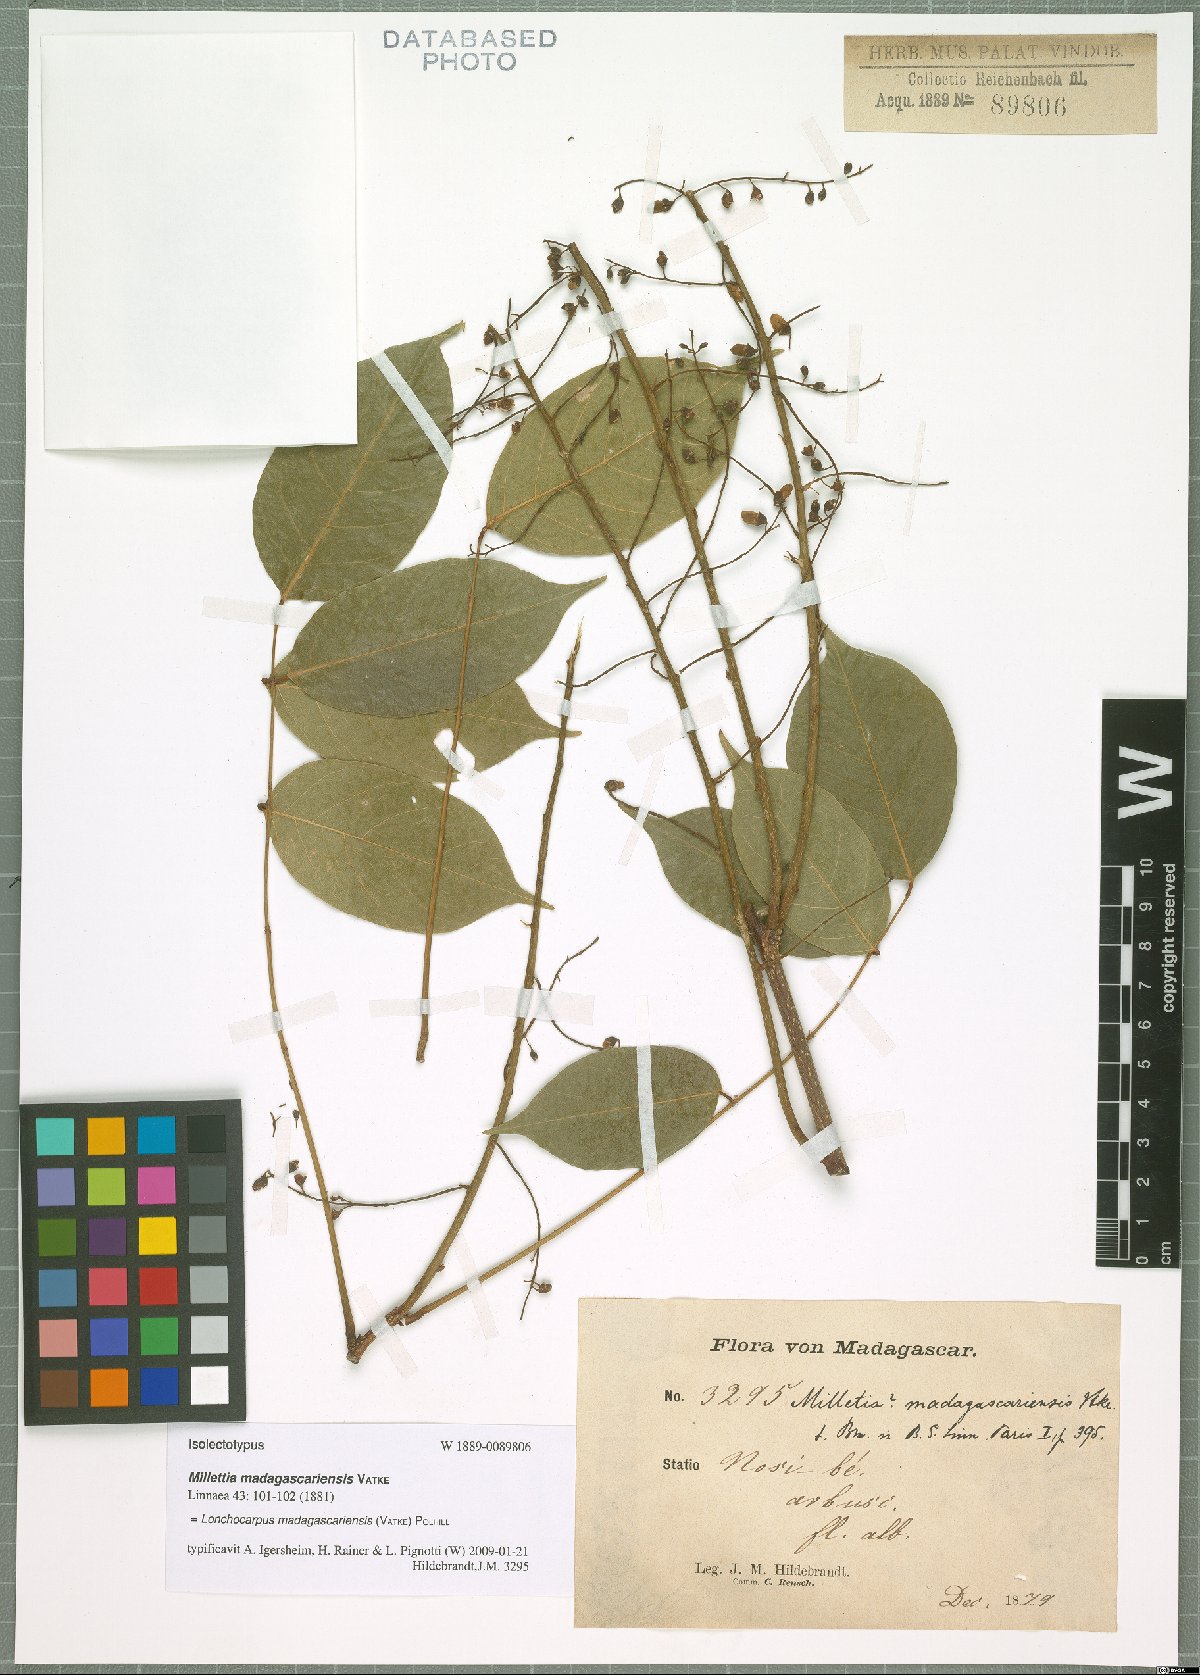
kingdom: Plantae
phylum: Tracheophyta
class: Magnoliopsida
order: Fabales
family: Fabaceae
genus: Lonchocarpus
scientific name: Lonchocarpus madagascariensis
